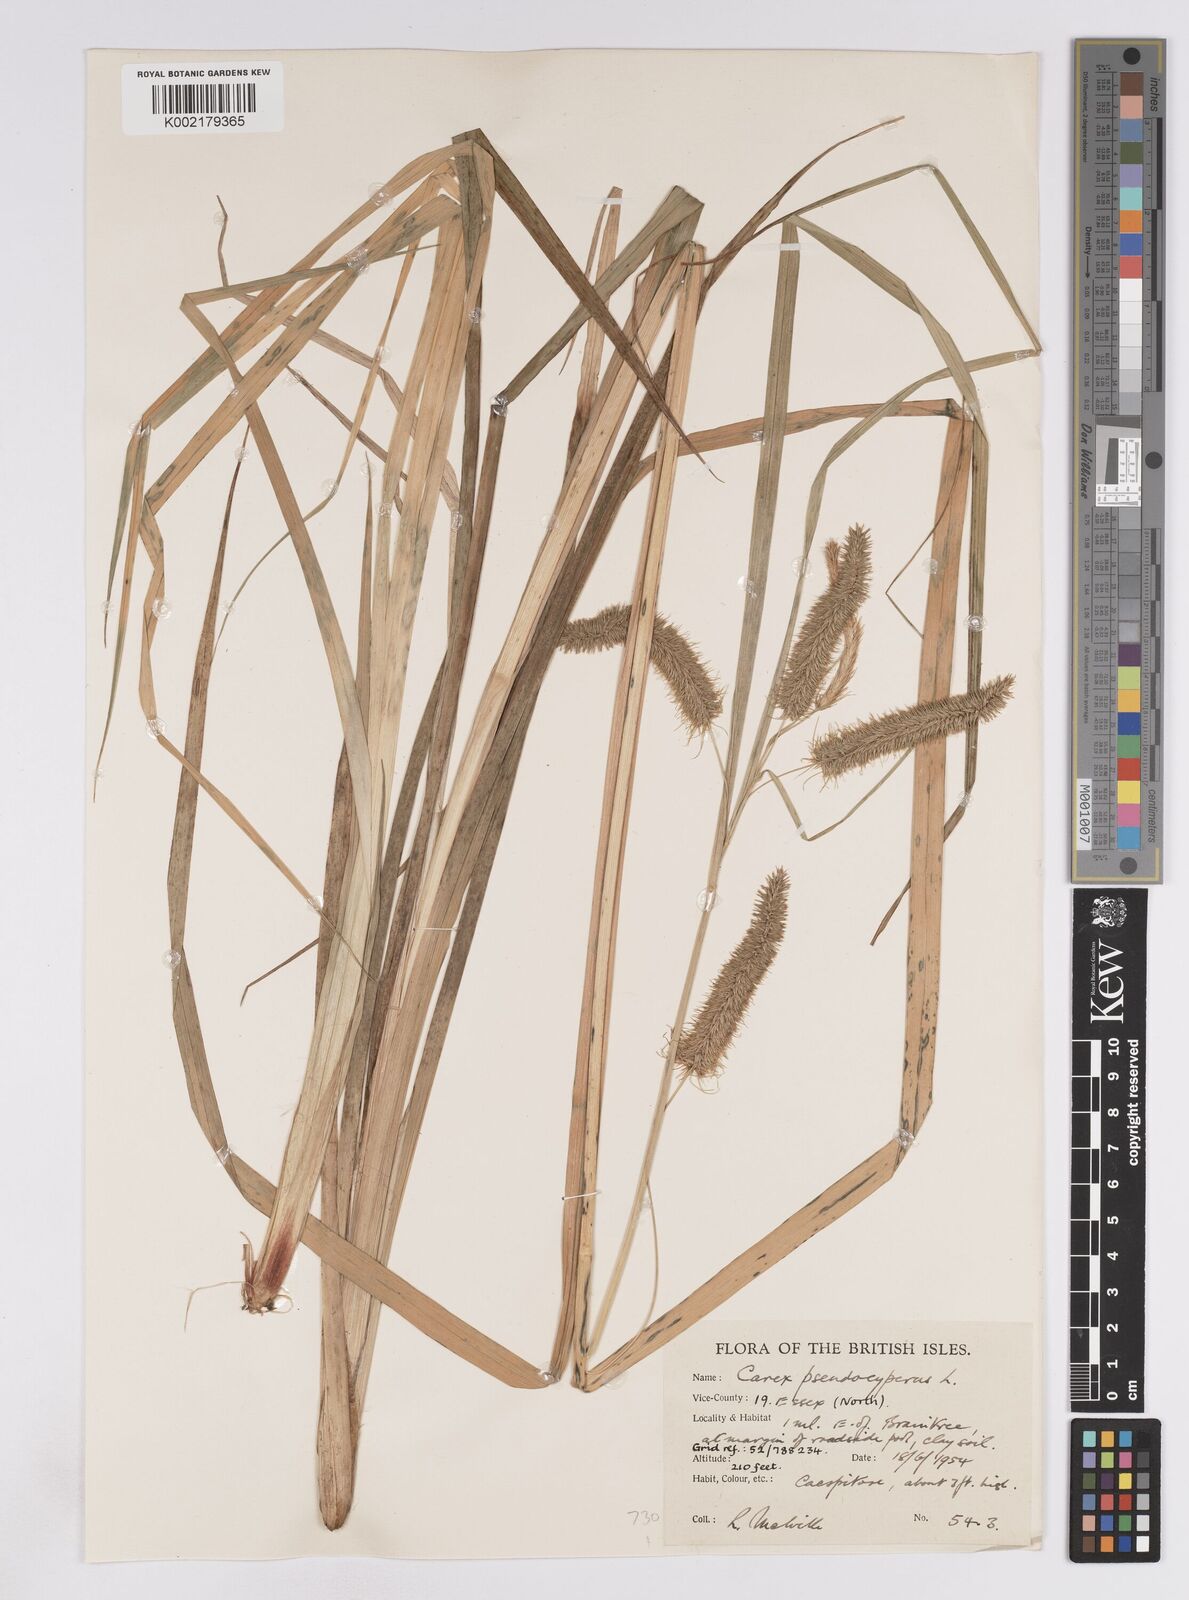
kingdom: Plantae
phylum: Tracheophyta
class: Liliopsida
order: Poales
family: Cyperaceae
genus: Carex
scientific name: Carex pseudocyperus
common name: Cyperus sedge
